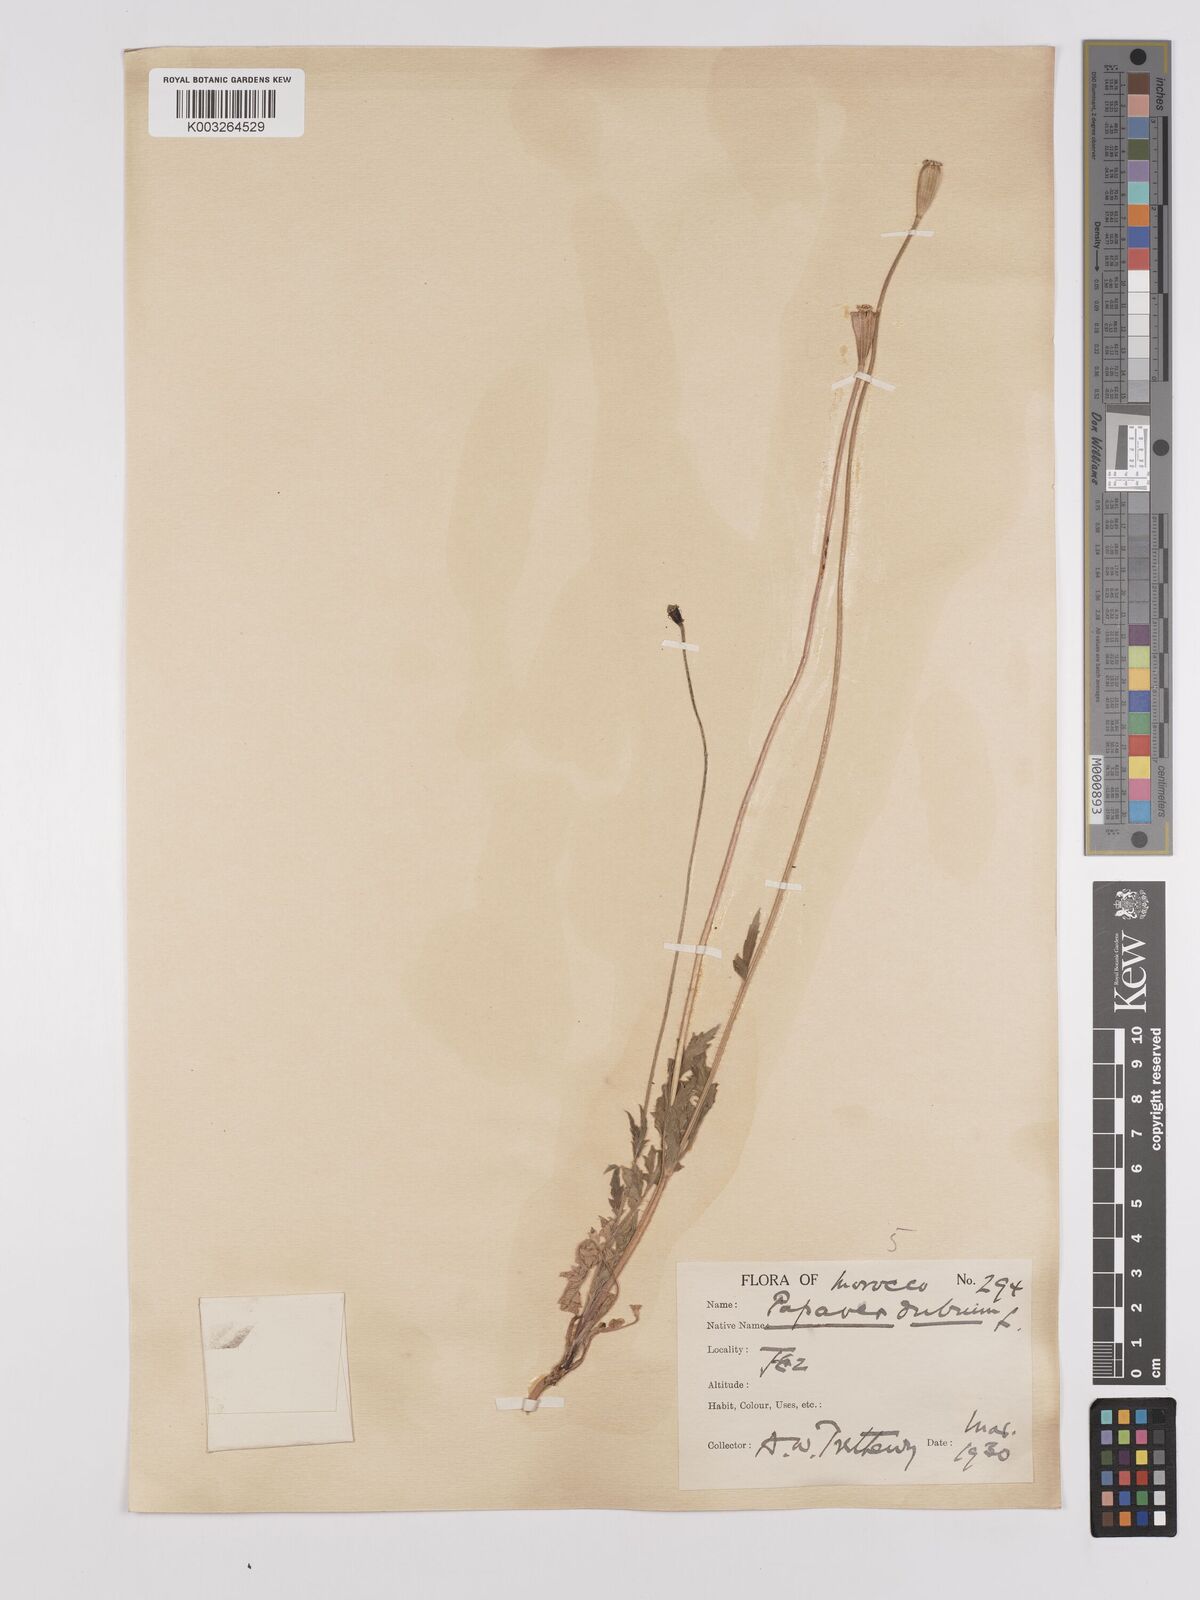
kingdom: Plantae
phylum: Tracheophyta
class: Magnoliopsida
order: Ranunculales
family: Papaveraceae
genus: Papaver
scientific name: Papaver dubium
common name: Long-headed poppy
